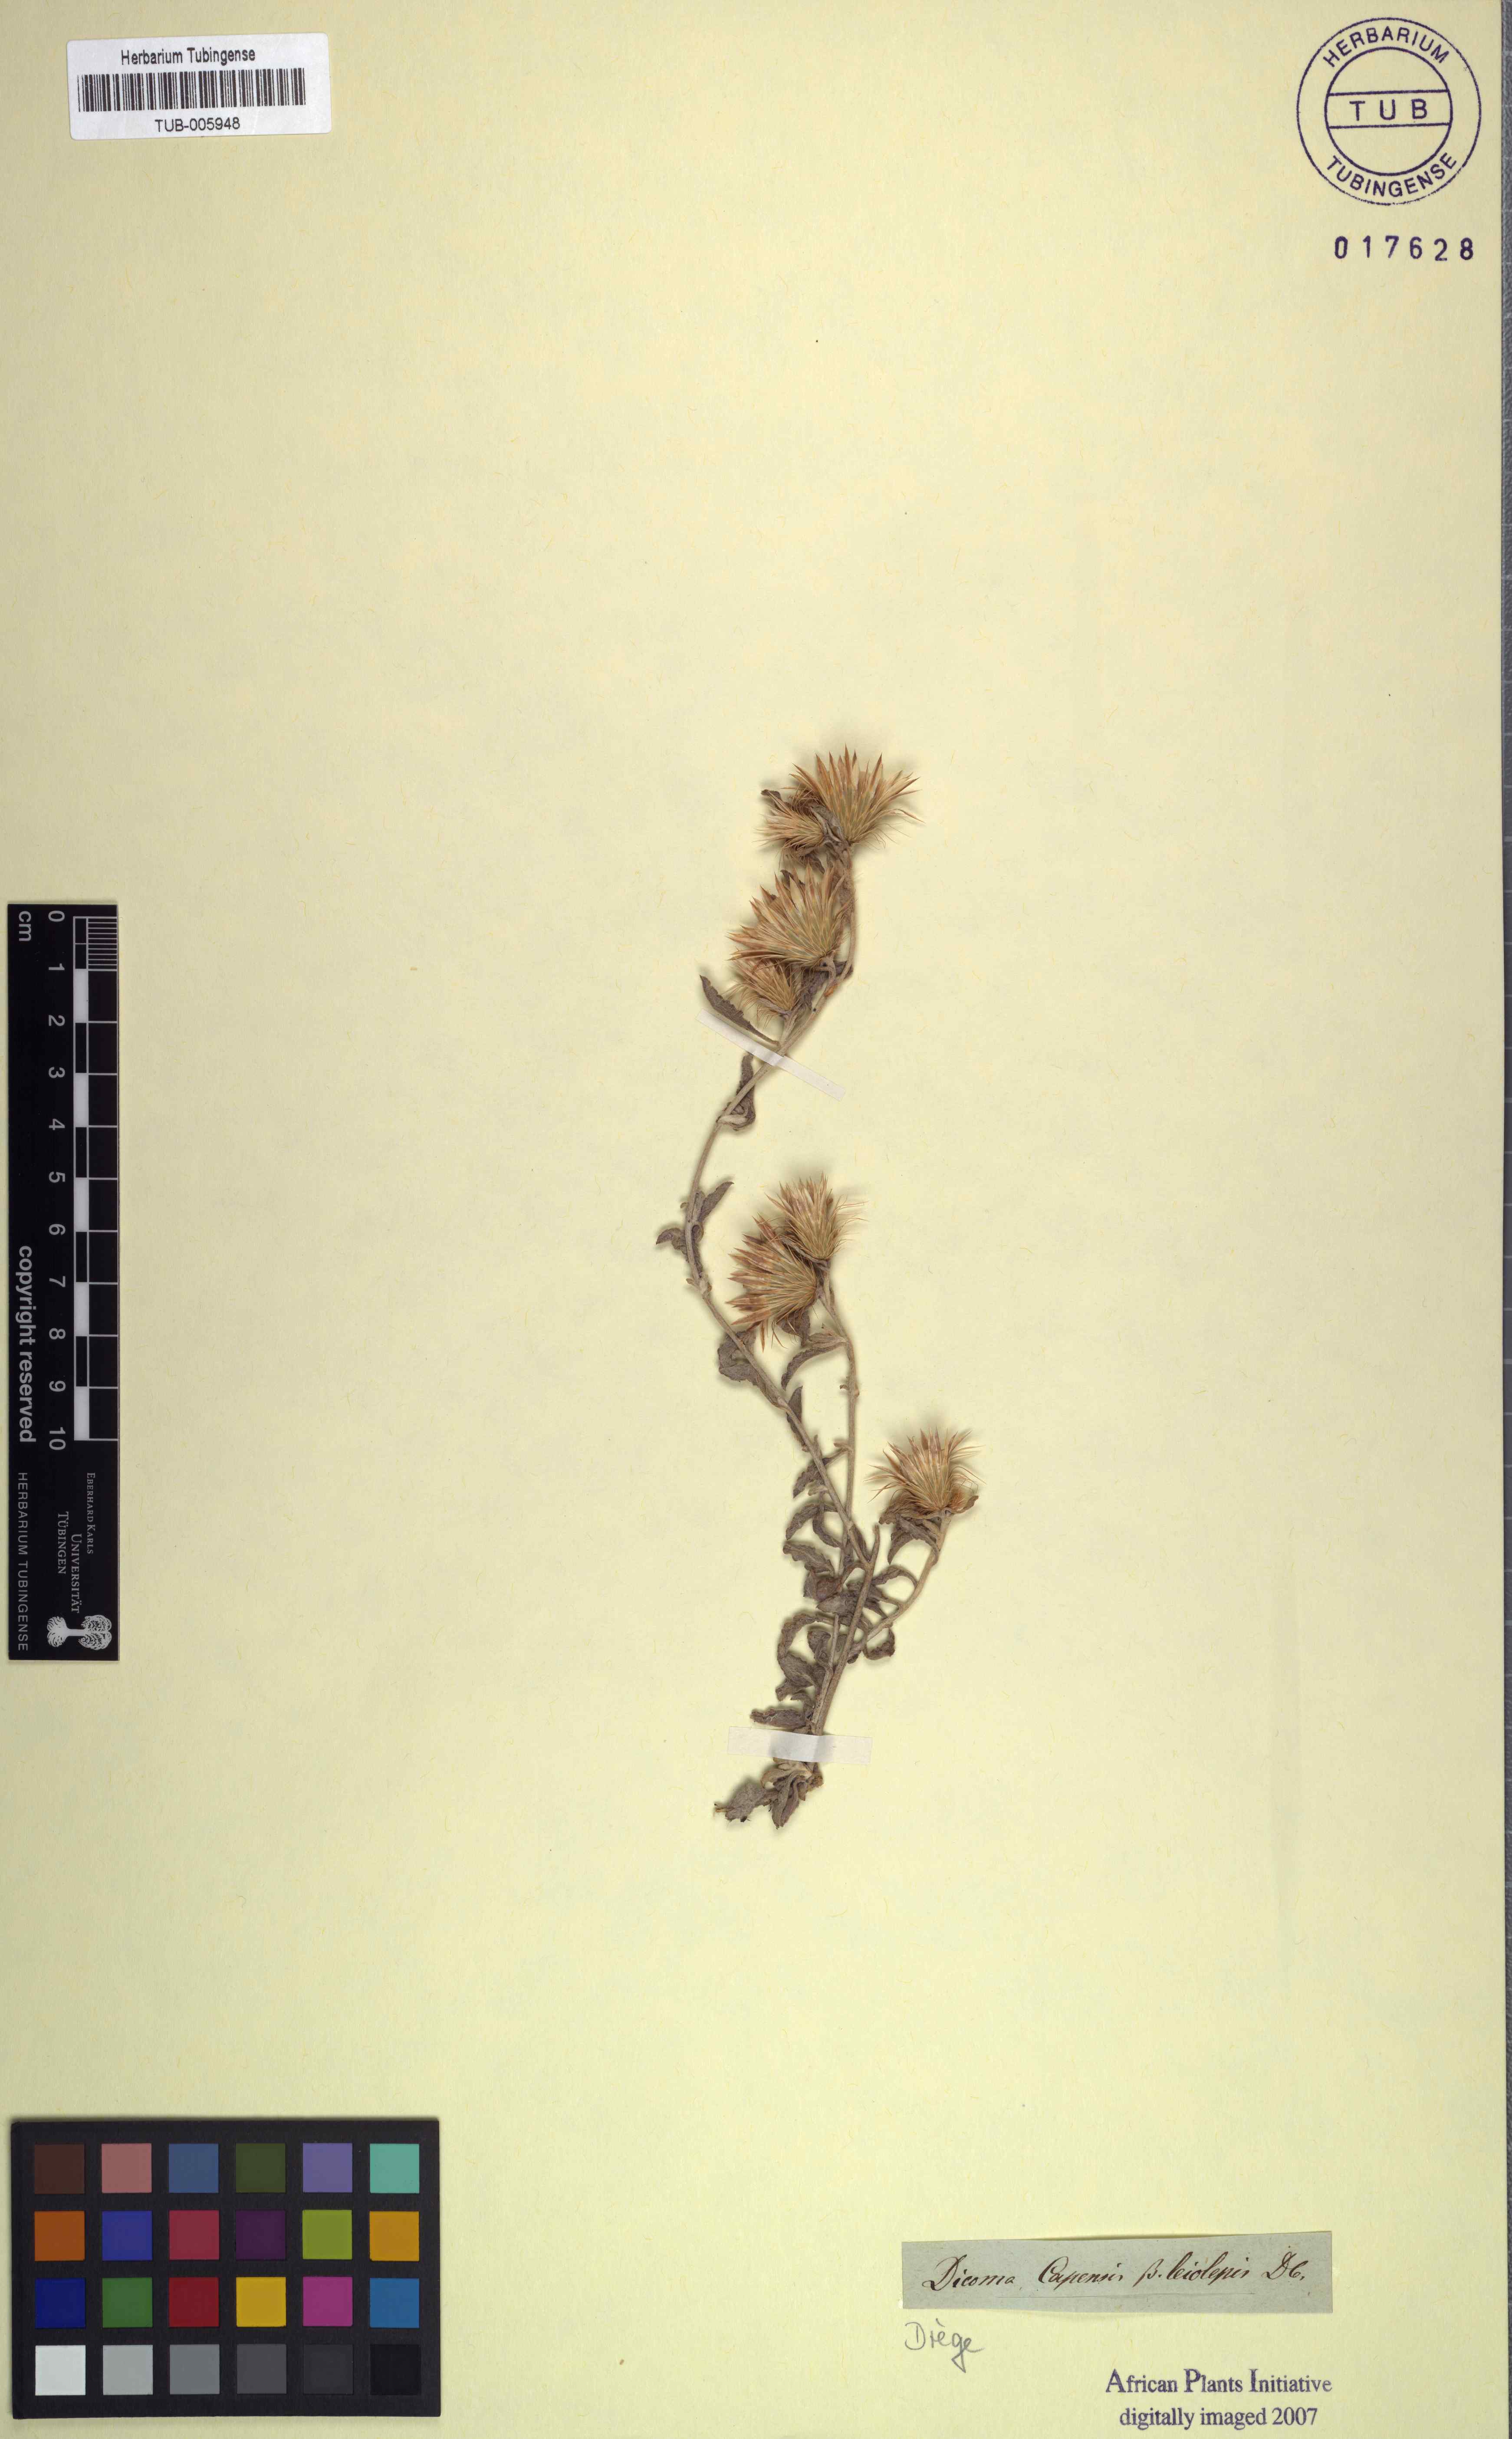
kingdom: Plantae
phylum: Tracheophyta
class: Magnoliopsida
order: Asterales
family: Asteraceae
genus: Dicoma
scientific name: Dicoma capensis
